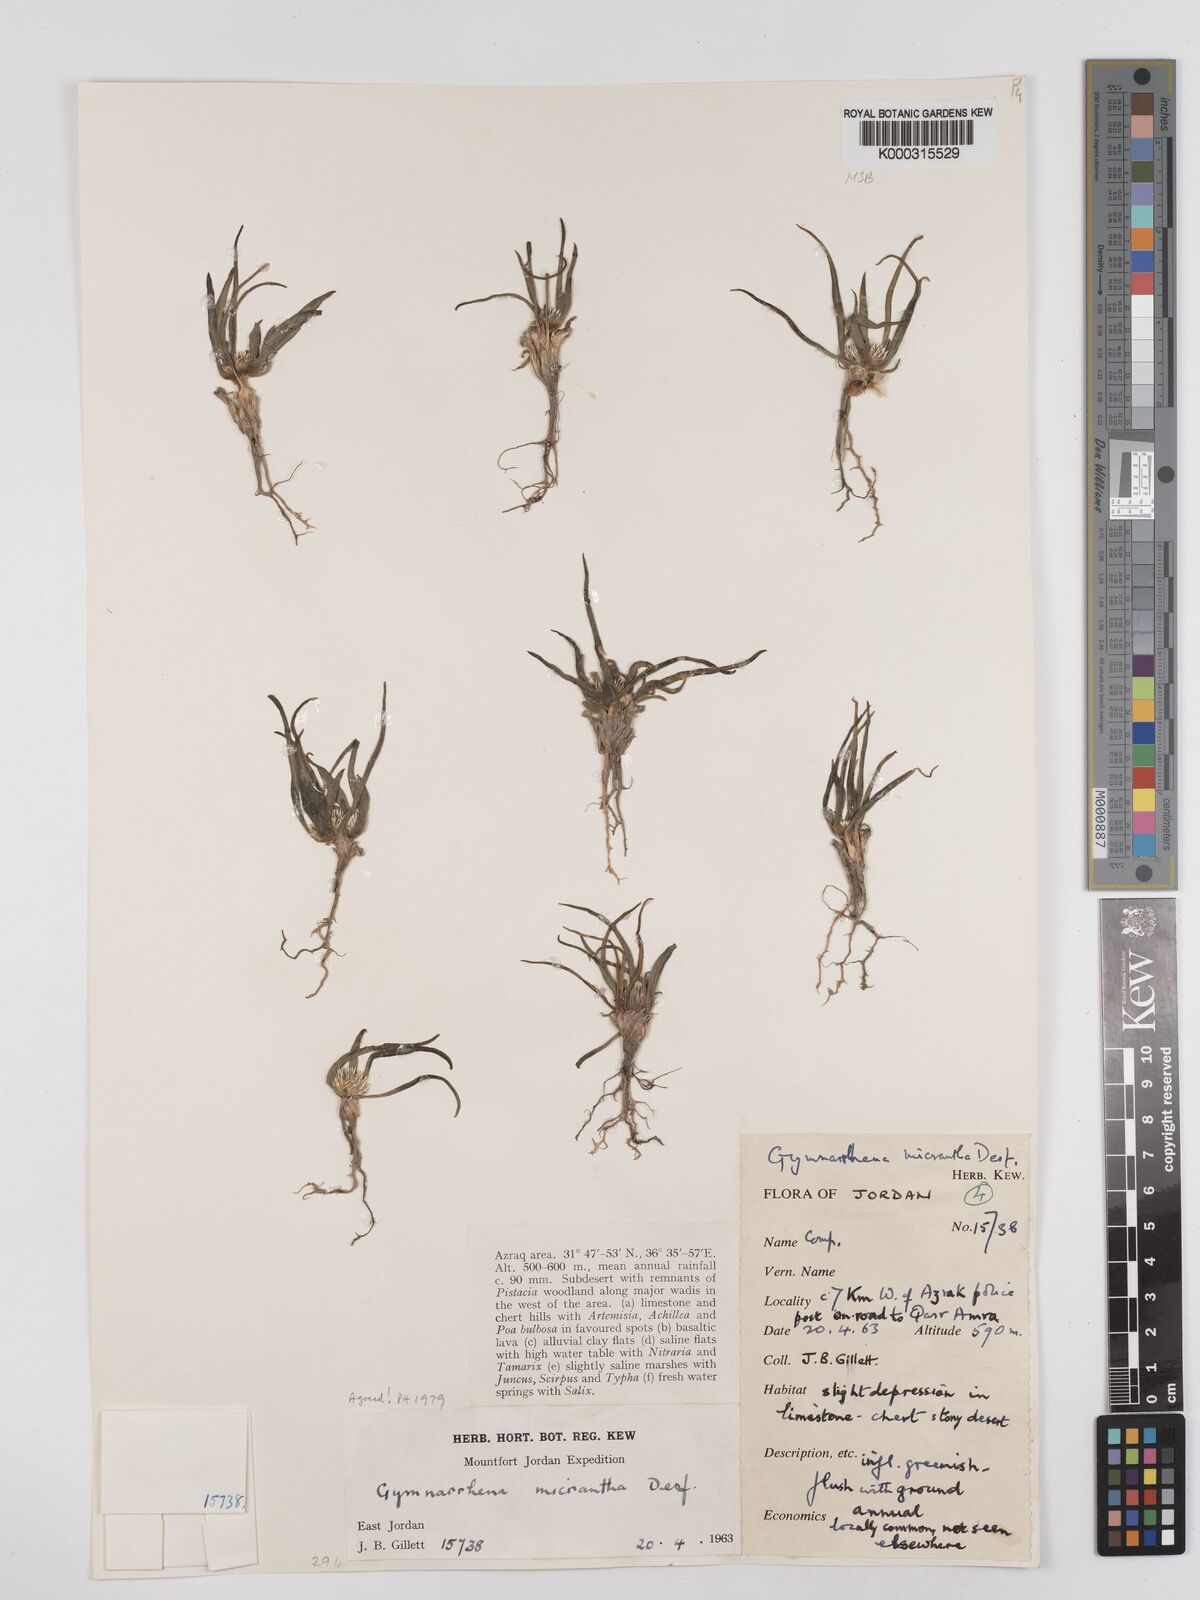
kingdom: Plantae
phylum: Tracheophyta
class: Magnoliopsida
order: Asterales
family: Asteraceae
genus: Gymnarrhena
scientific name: Gymnarrhena micrantha
